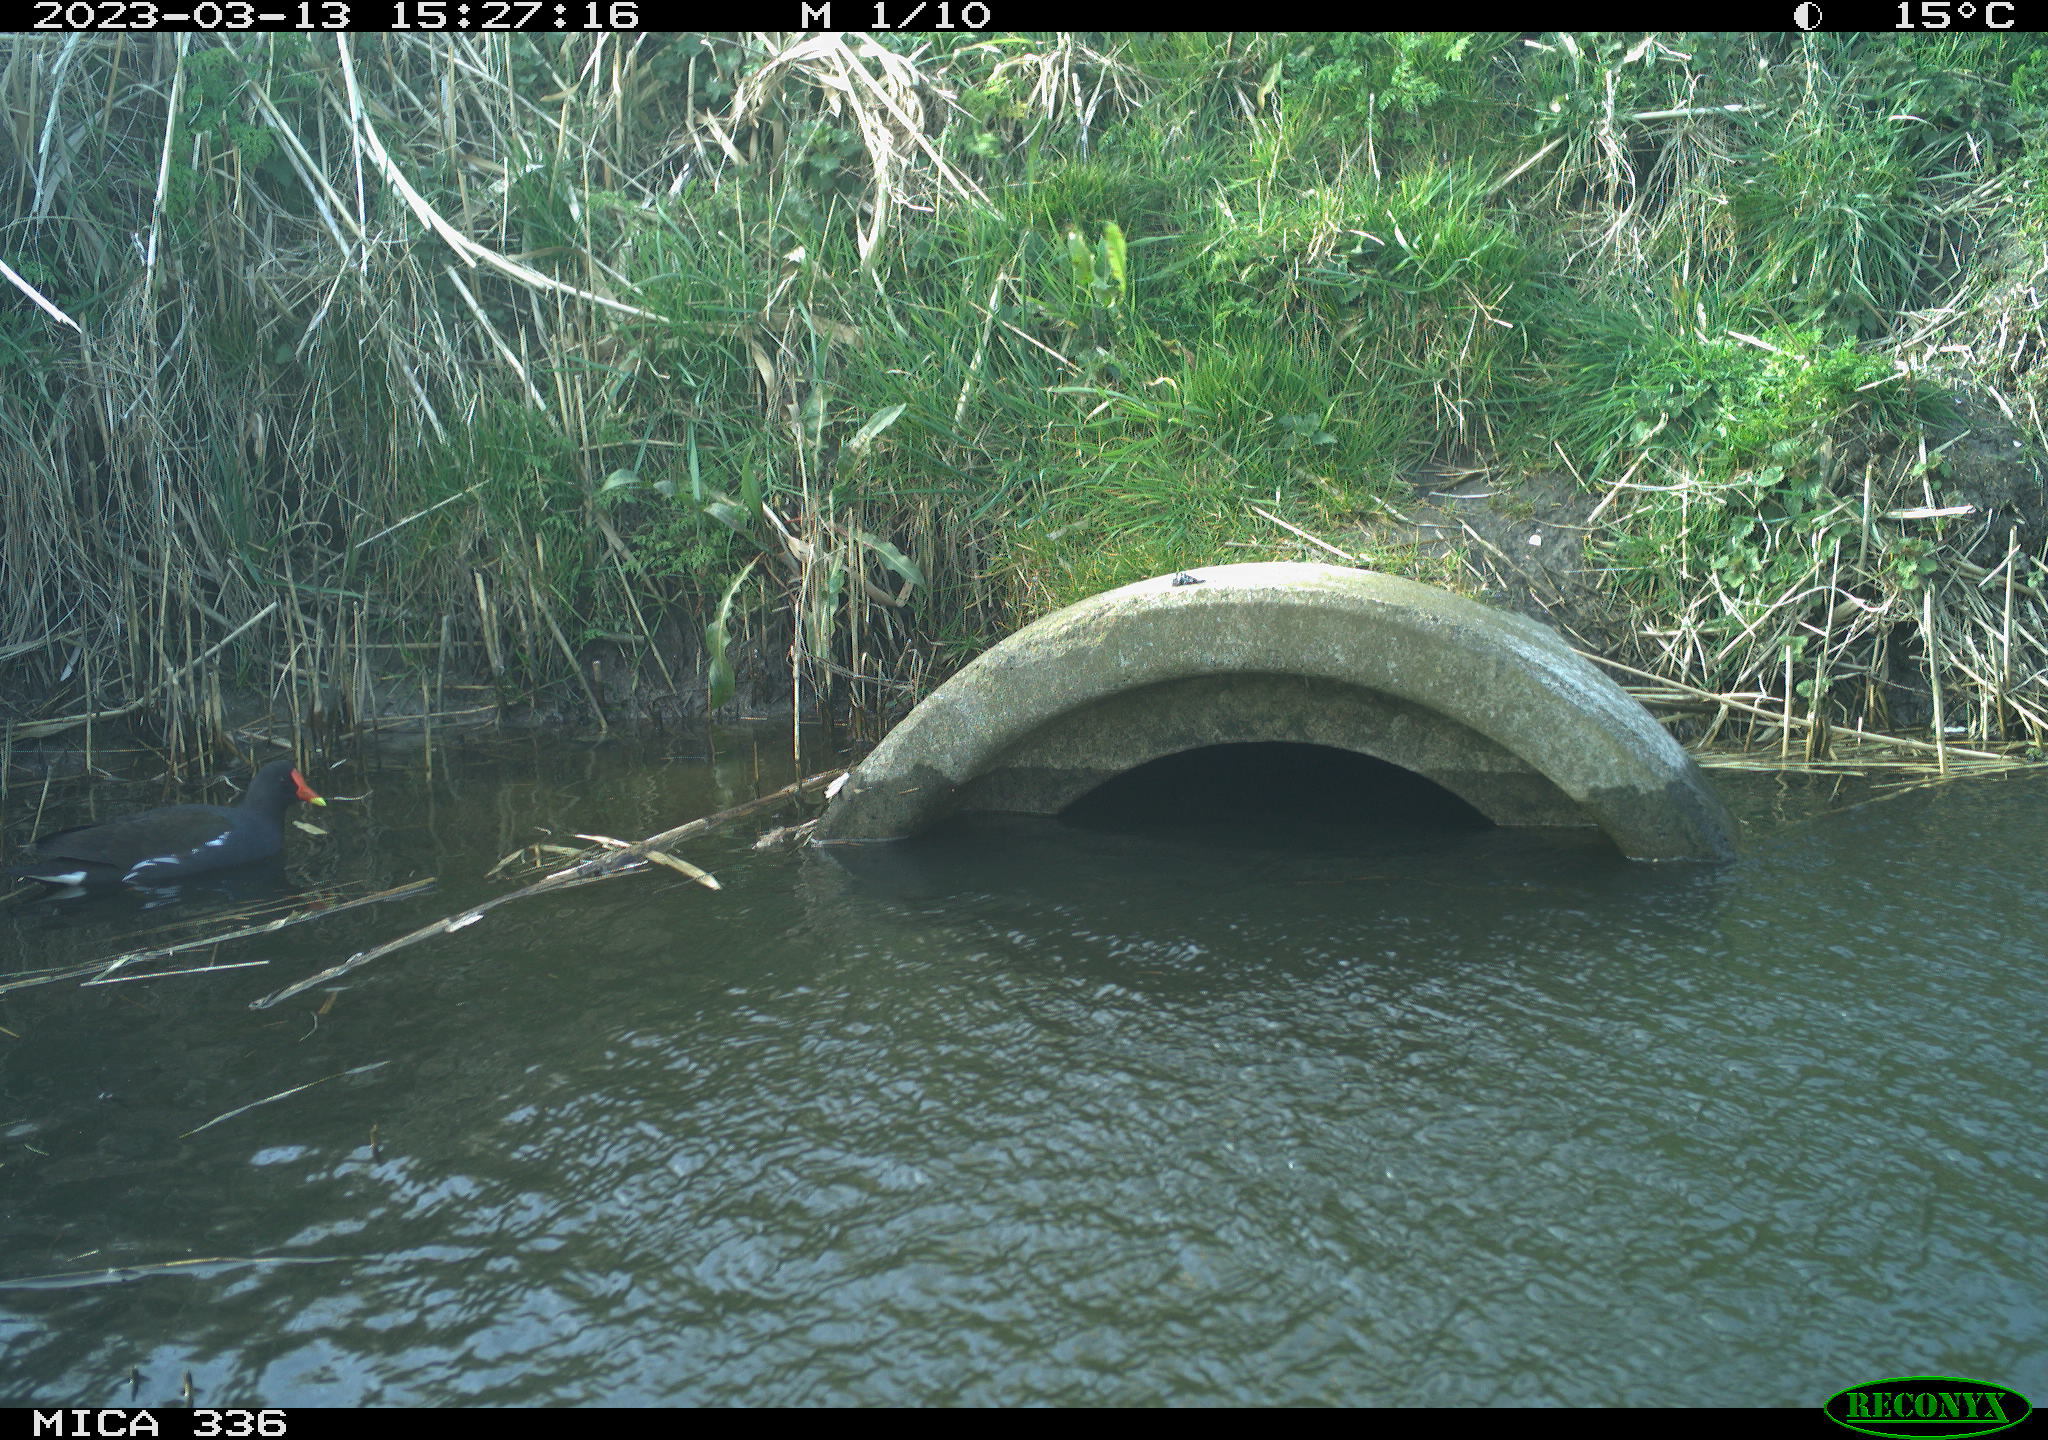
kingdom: Animalia
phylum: Chordata
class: Aves
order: Gruiformes
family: Rallidae
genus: Gallinula
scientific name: Gallinula chloropus
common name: Common moorhen
